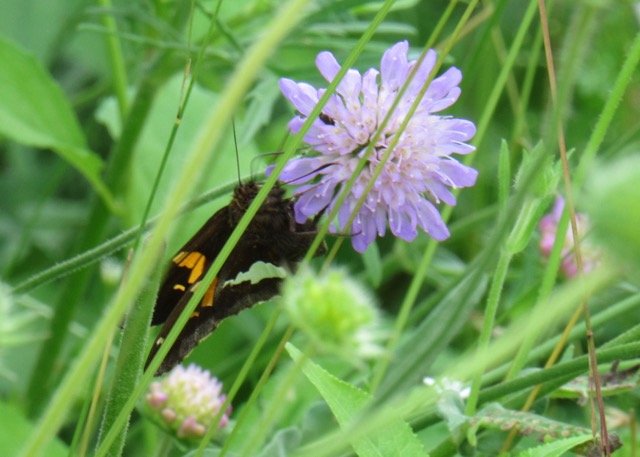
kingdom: Animalia
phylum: Arthropoda
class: Insecta
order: Lepidoptera
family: Hesperiidae
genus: Epargyreus
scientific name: Epargyreus clarus
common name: Silver-spotted Skipper
